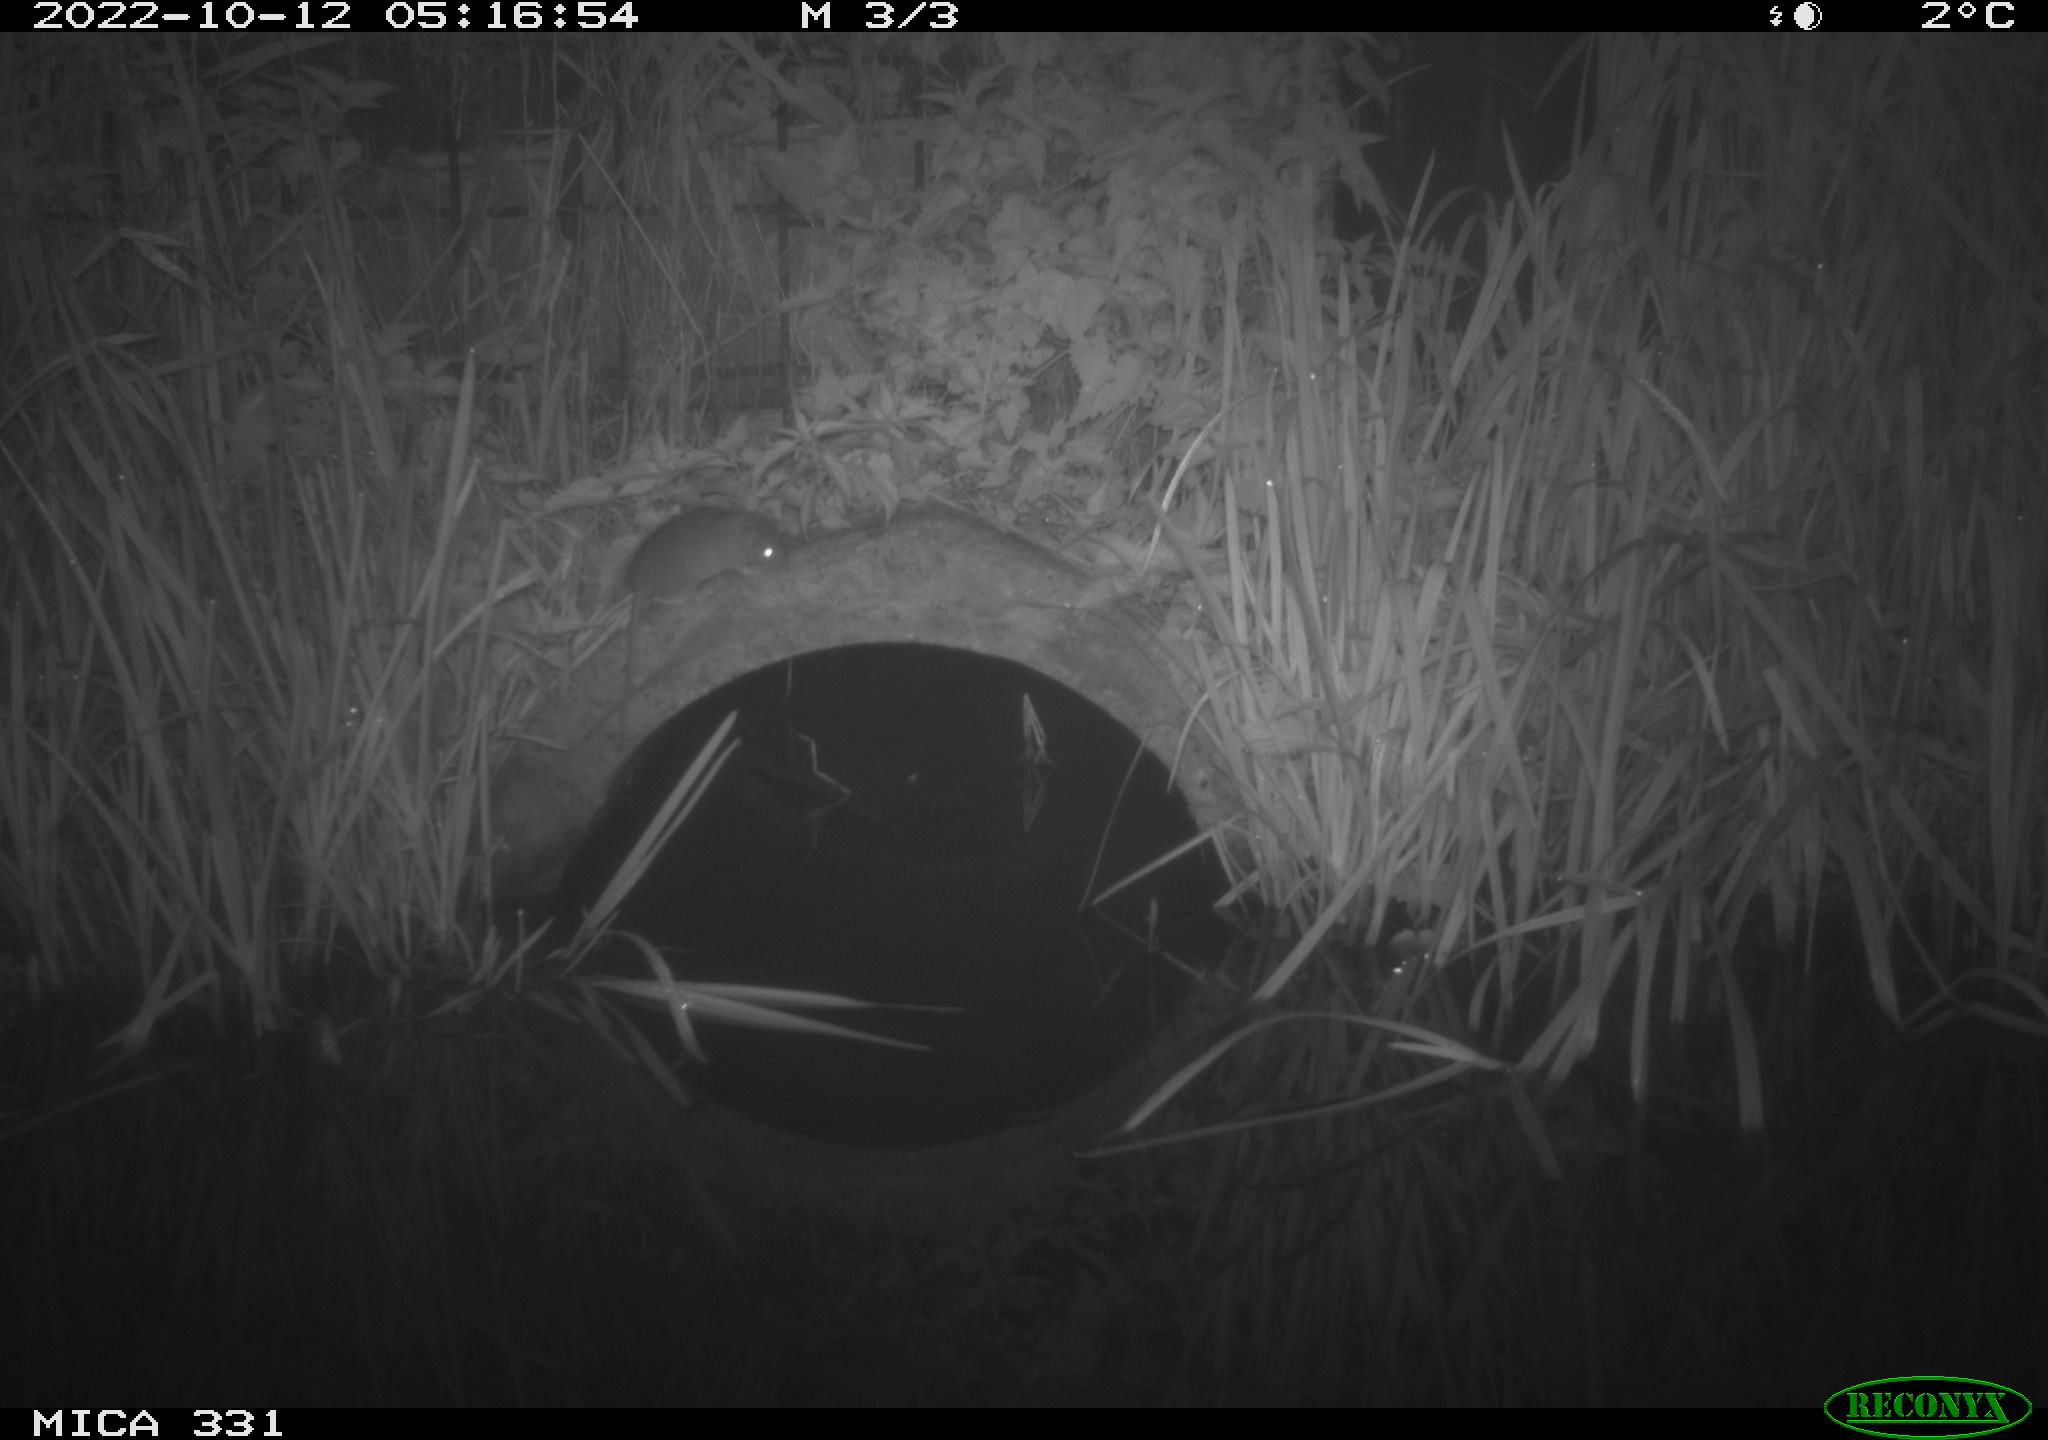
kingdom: Animalia
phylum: Chordata
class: Mammalia
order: Rodentia
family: Muridae
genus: Rattus
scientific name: Rattus norvegicus
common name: Brown rat
